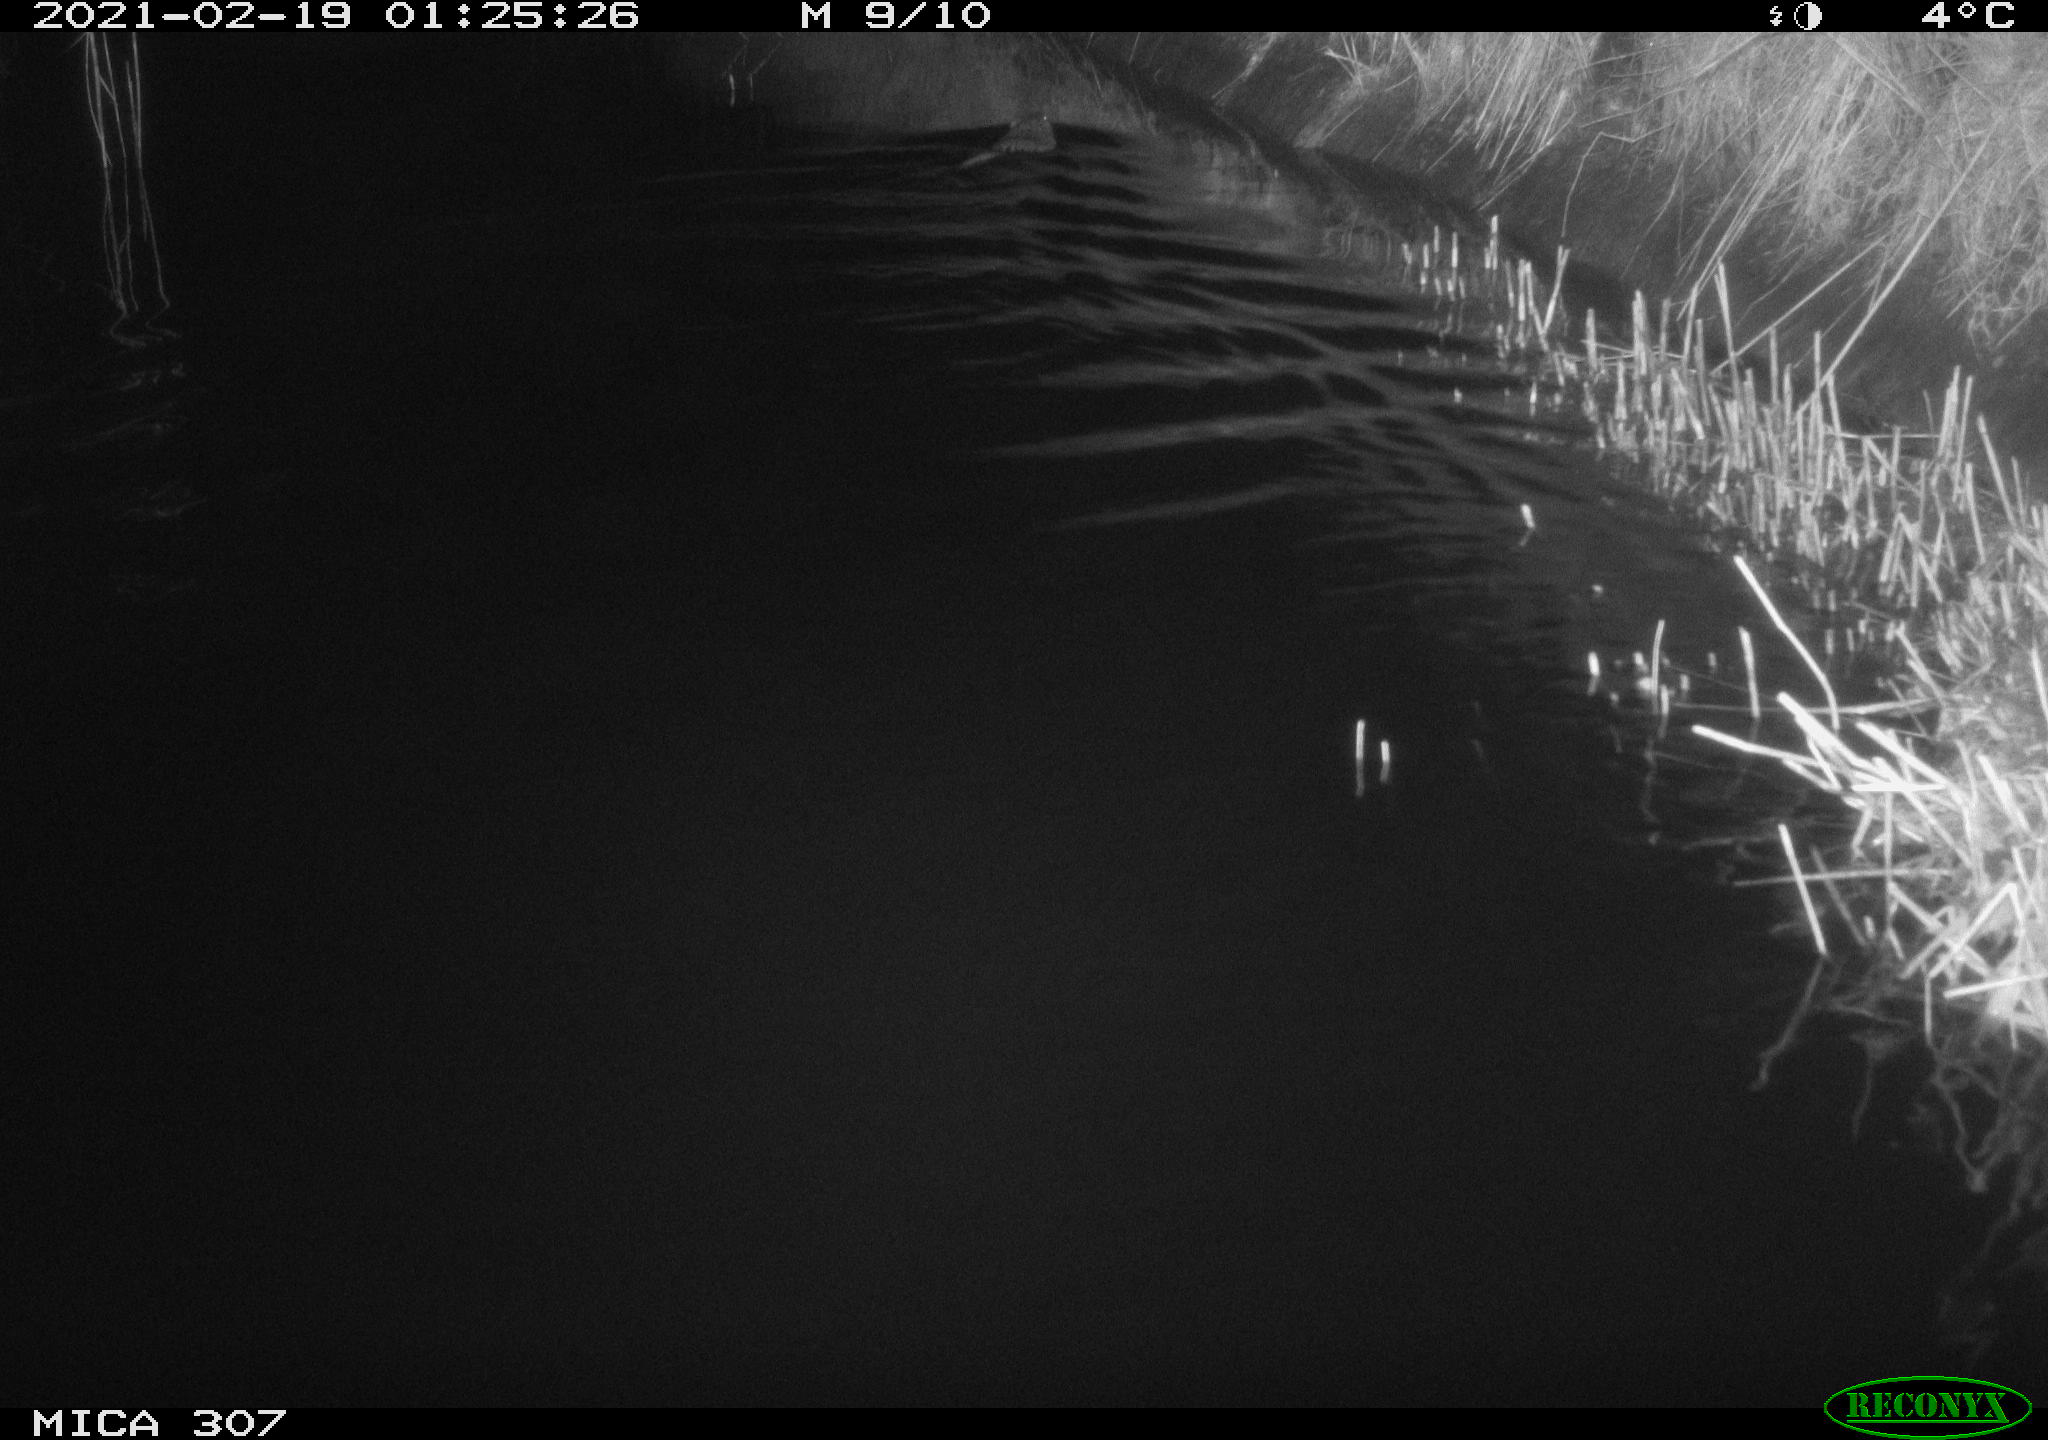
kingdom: Animalia
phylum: Chordata
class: Mammalia
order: Rodentia
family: Cricetidae
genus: Ondatra
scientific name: Ondatra zibethicus
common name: Muskrat
